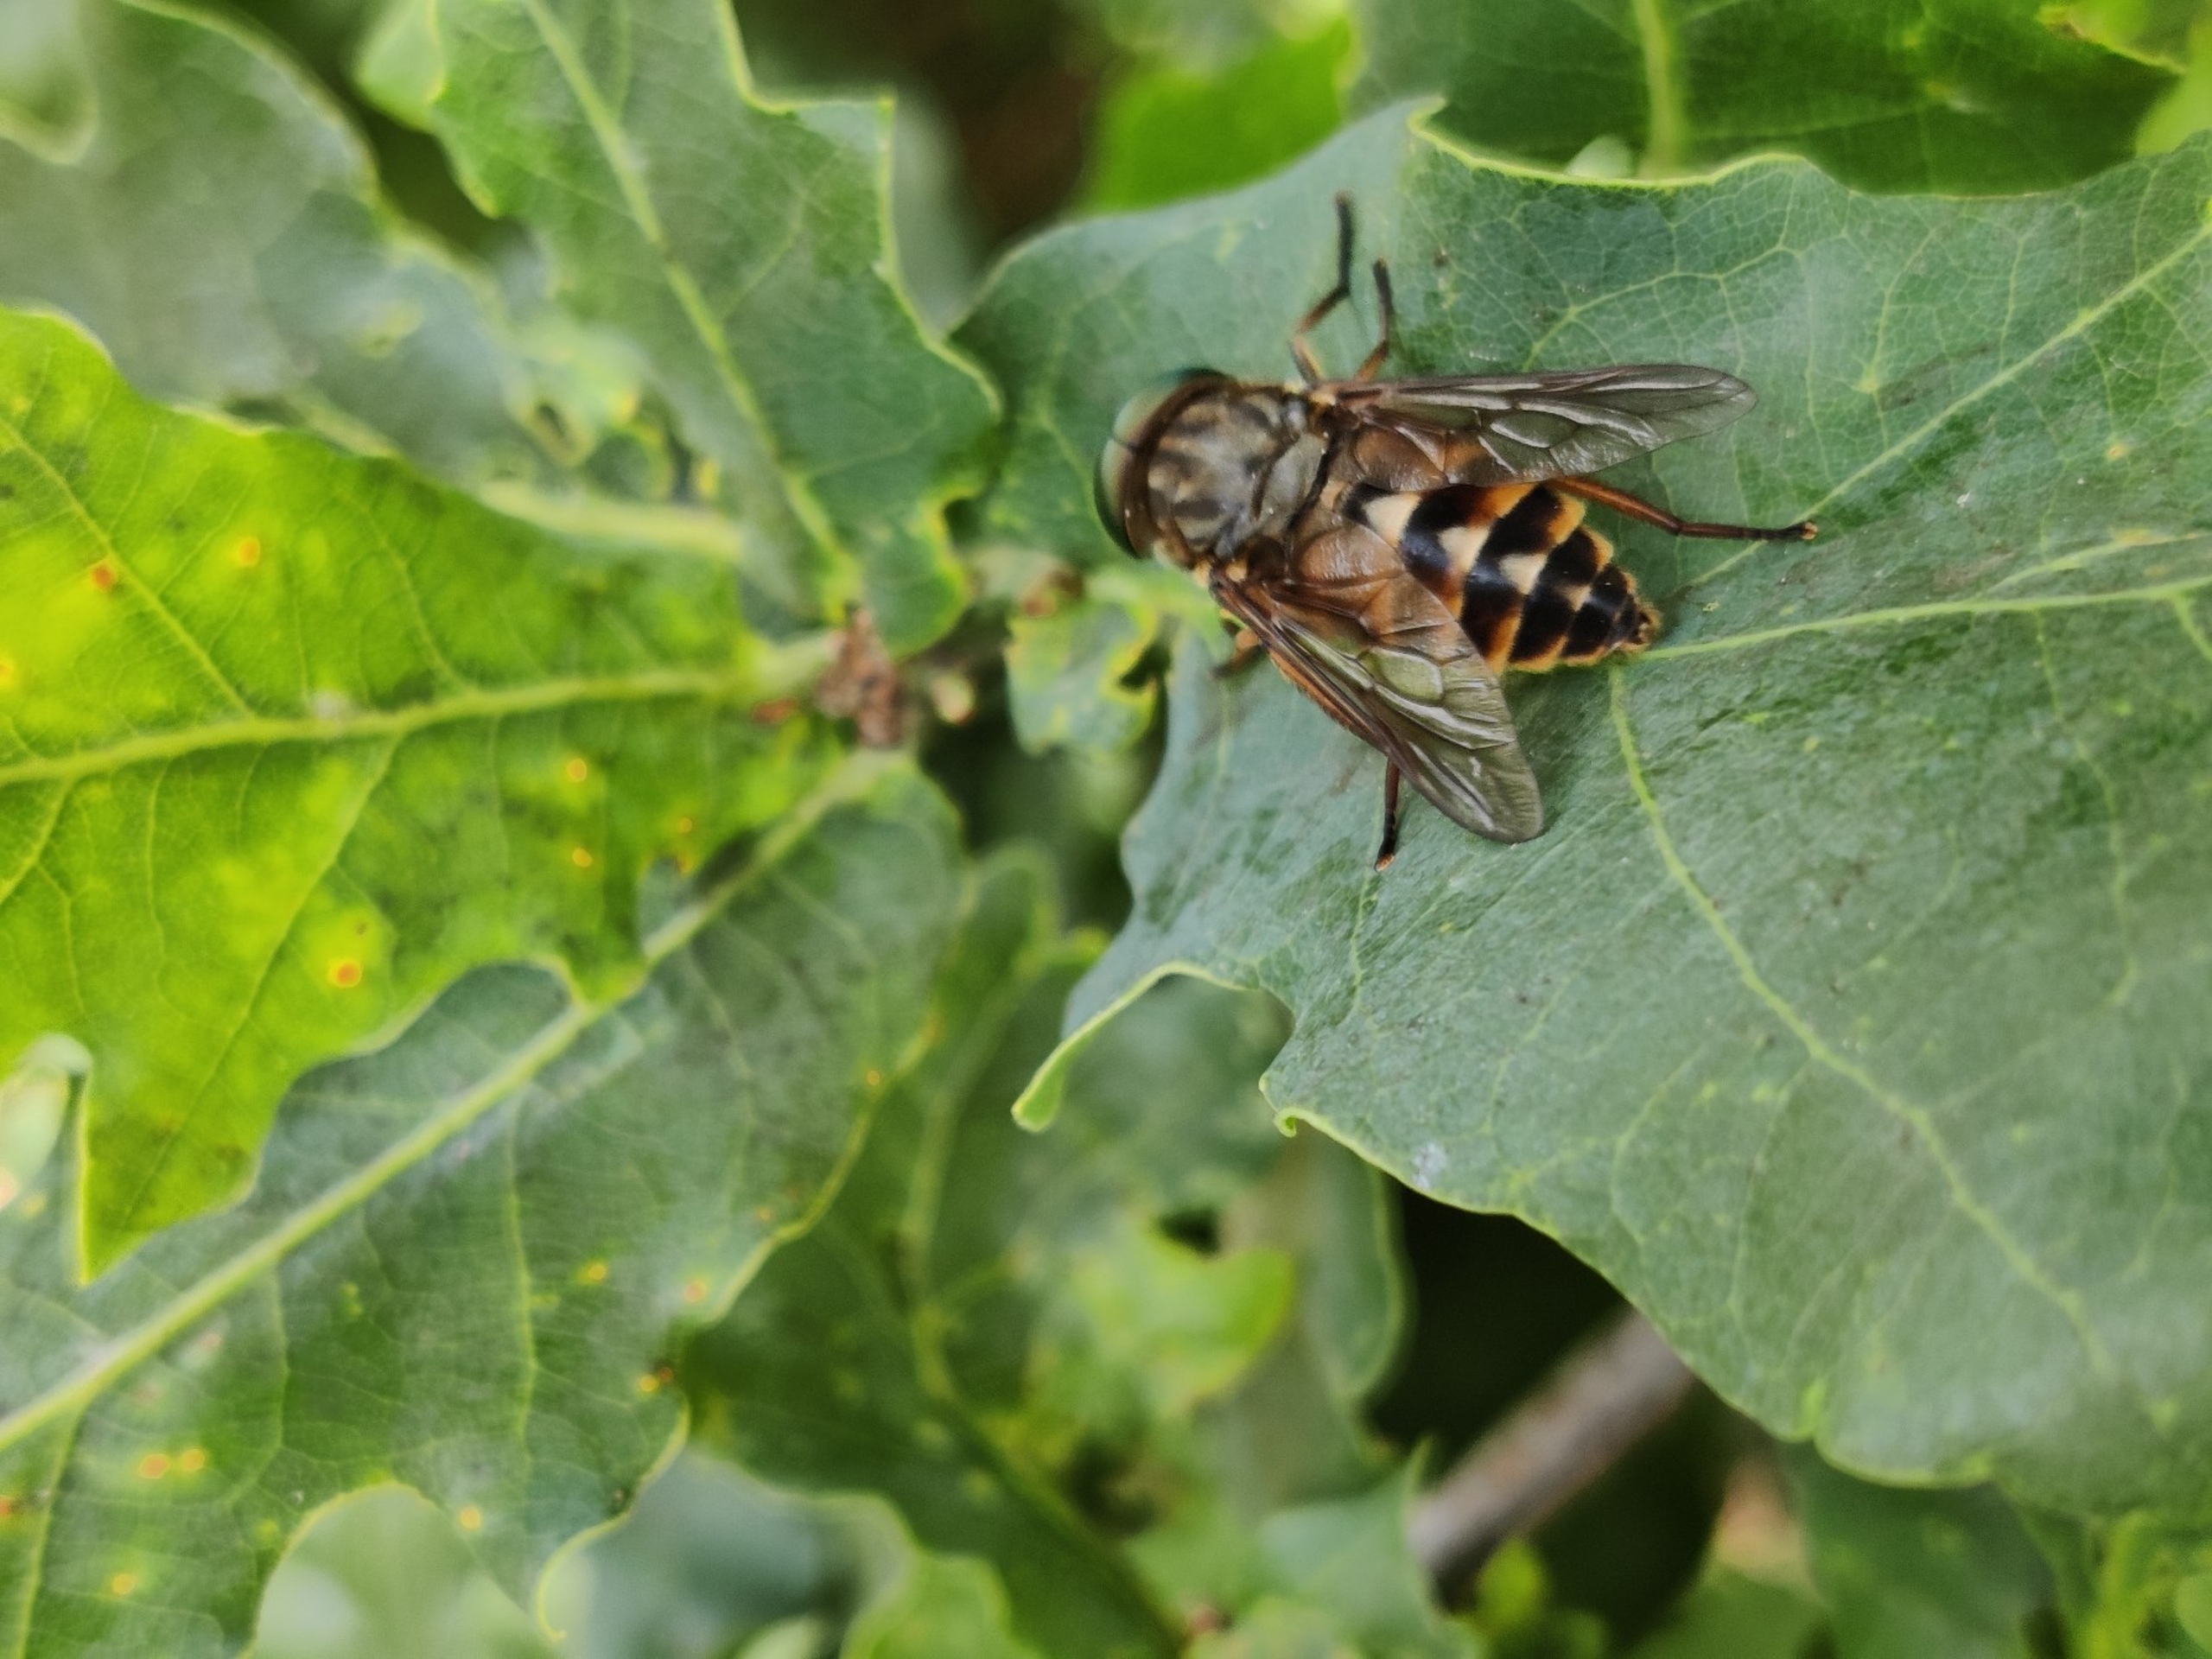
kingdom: Animalia
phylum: Arthropoda
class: Insecta
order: Diptera
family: Tabanidae
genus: Tabanus
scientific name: Tabanus sudeticus
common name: Hesteklæg
